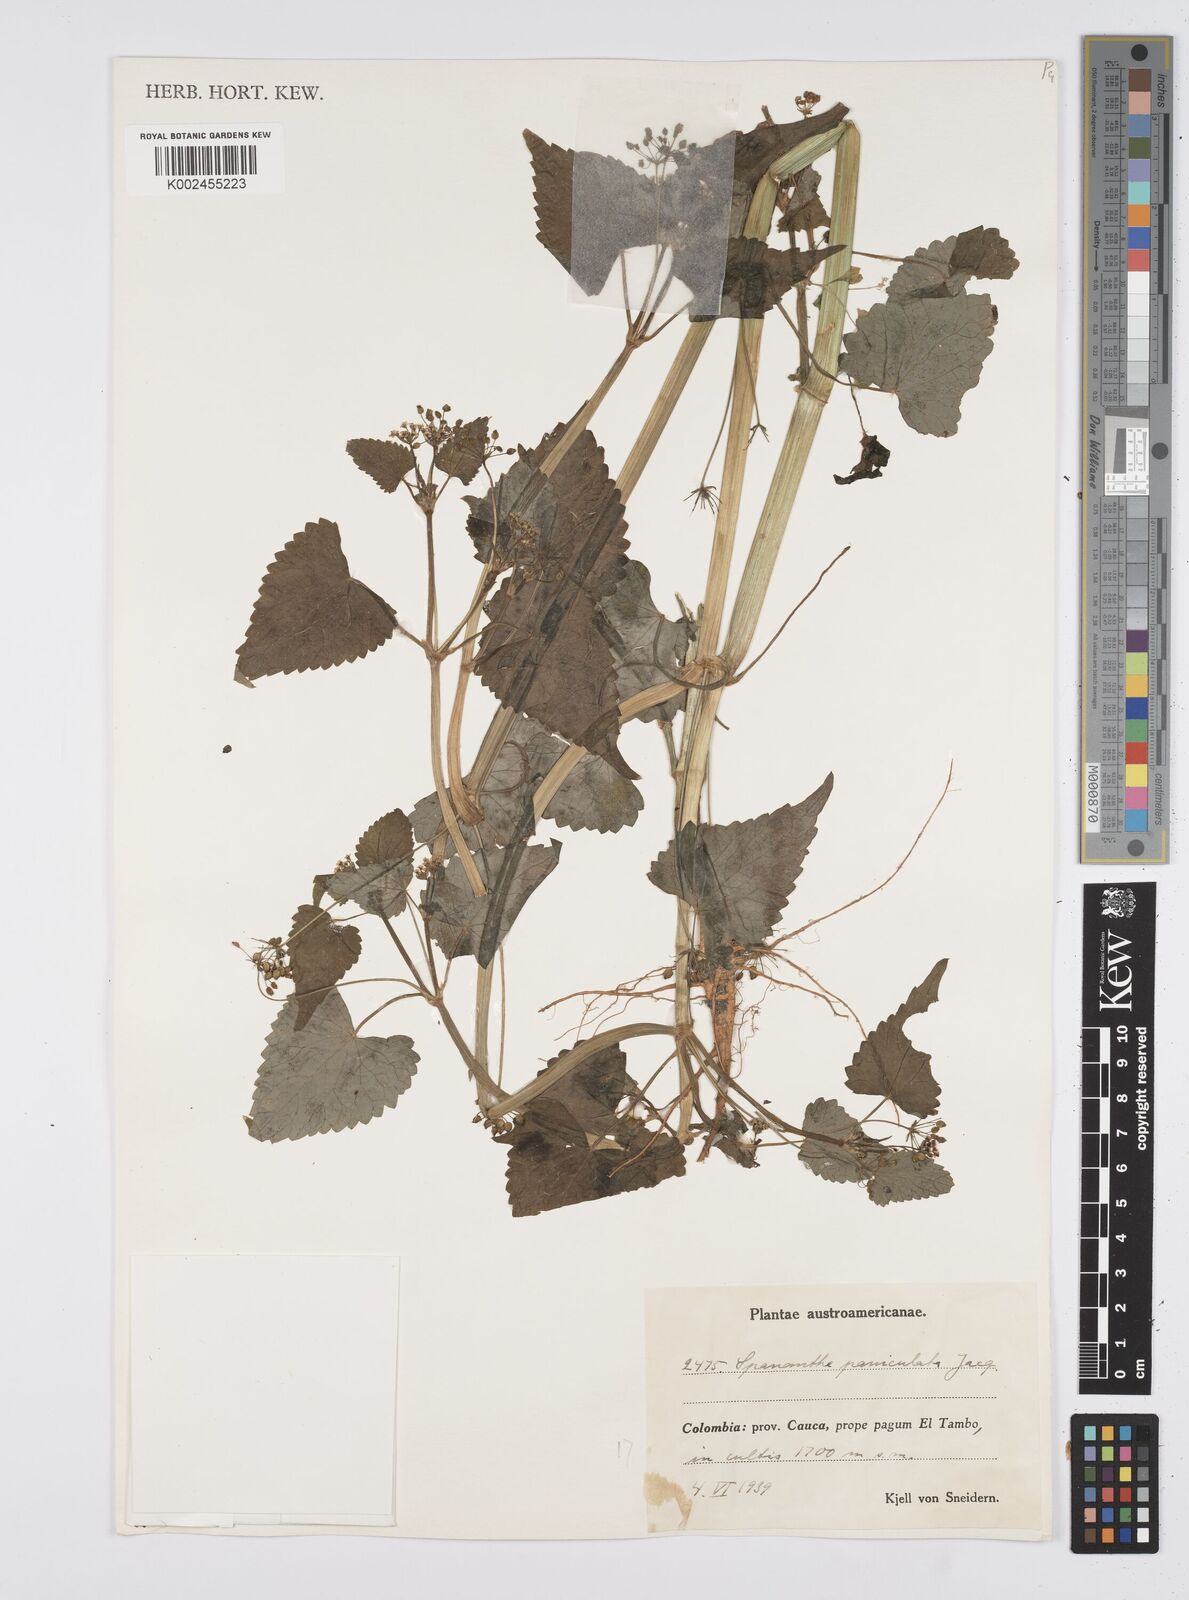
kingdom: Plantae
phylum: Tracheophyta
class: Magnoliopsida
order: Apiales
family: Apiaceae
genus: Azorella
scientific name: Azorella
